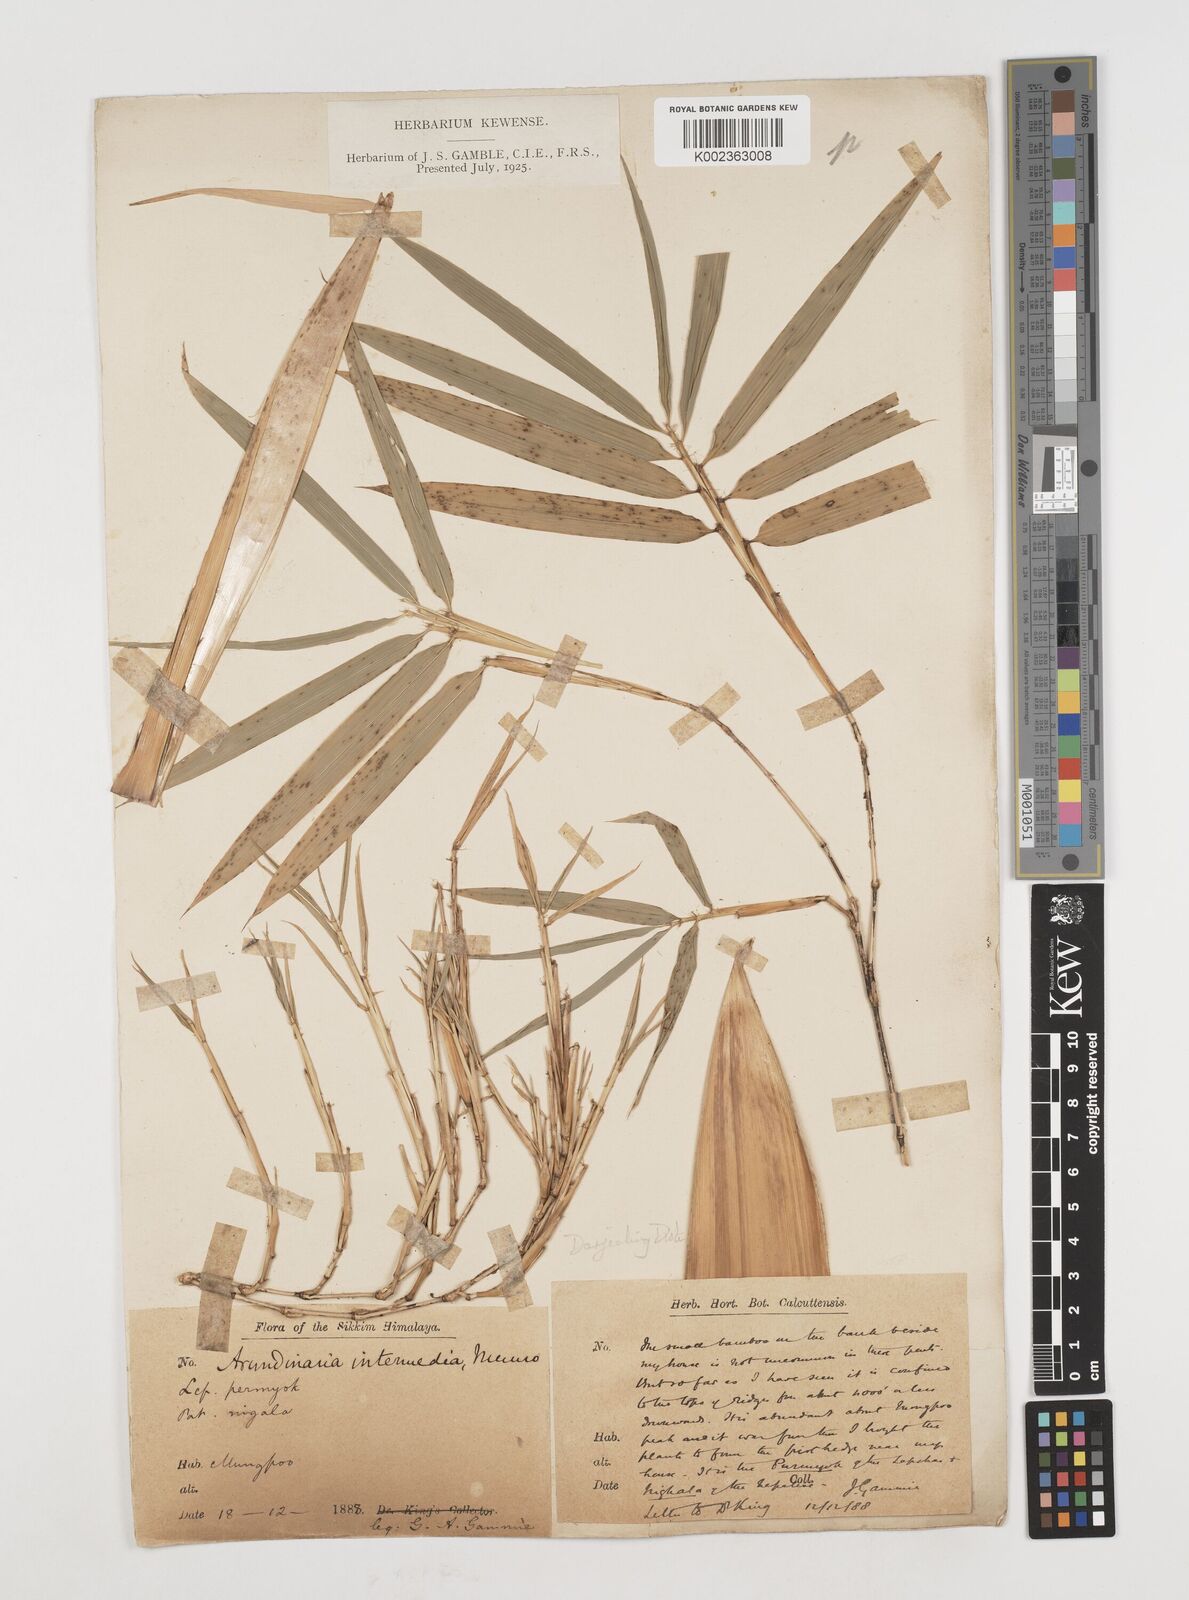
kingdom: Plantae
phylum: Tracheophyta
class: Liliopsida
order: Poales
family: Poaceae
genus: Drepanostachyum
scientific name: Drepanostachyum
